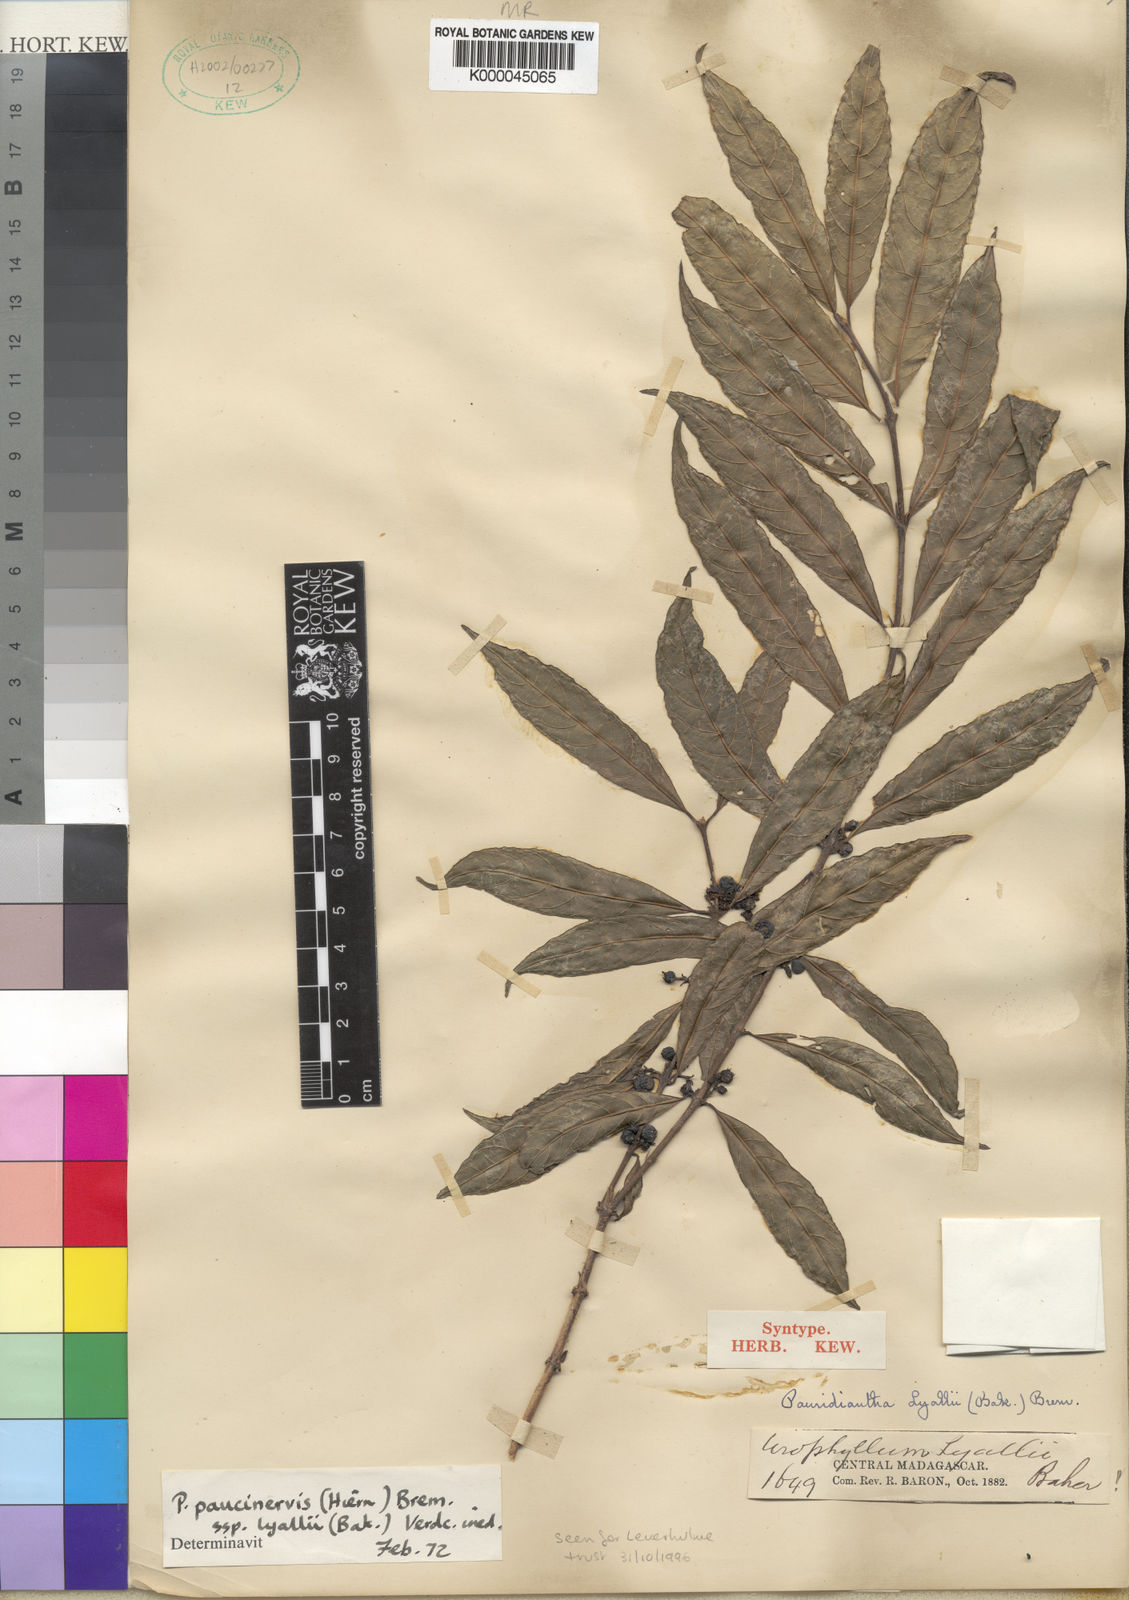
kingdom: Plantae
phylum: Tracheophyta
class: Magnoliopsida
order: Gentianales
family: Rubiaceae
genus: Pauridiantha
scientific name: Pauridiantha paucinervis
